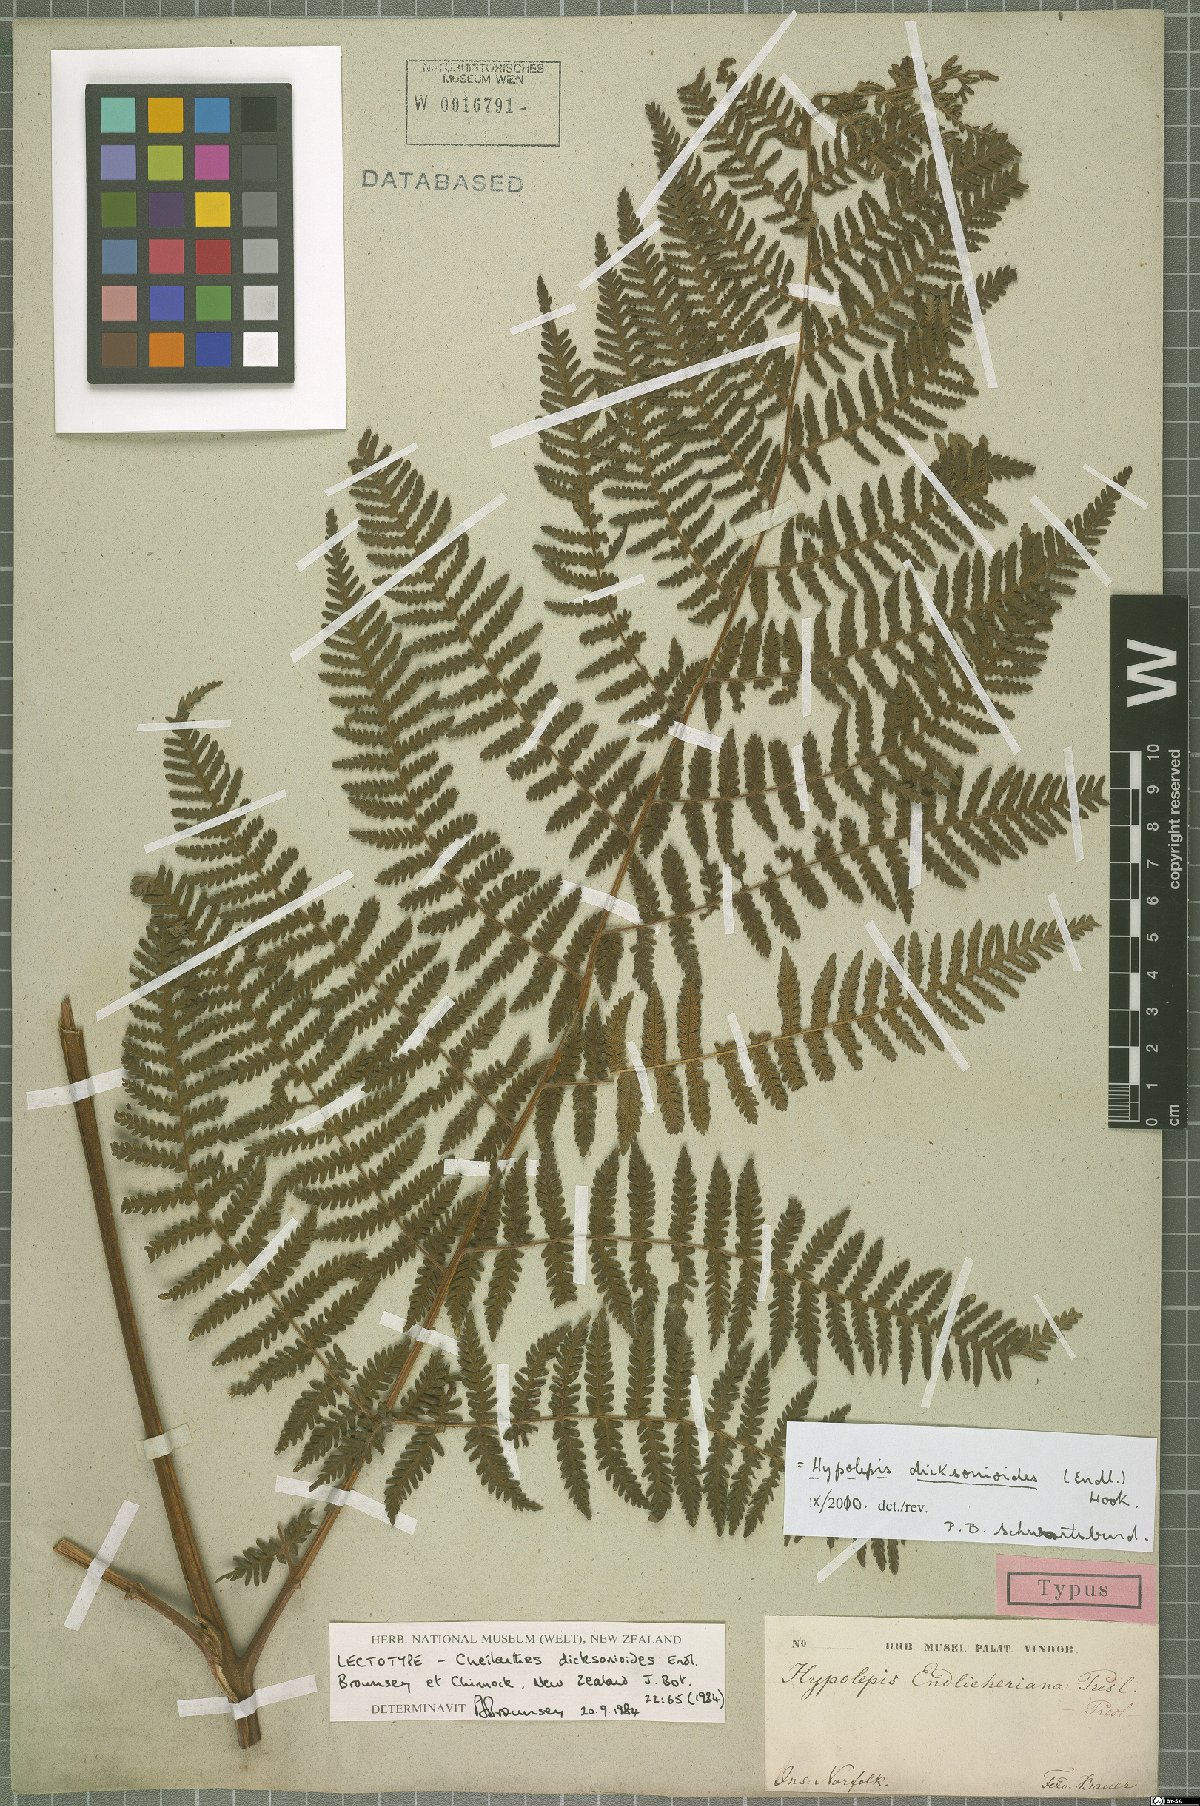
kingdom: Plantae
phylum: Tracheophyta
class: Polypodiopsida
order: Polypodiales
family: Dennstaedtiaceae
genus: Hypolepis
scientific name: Hypolepis dicksonioides
